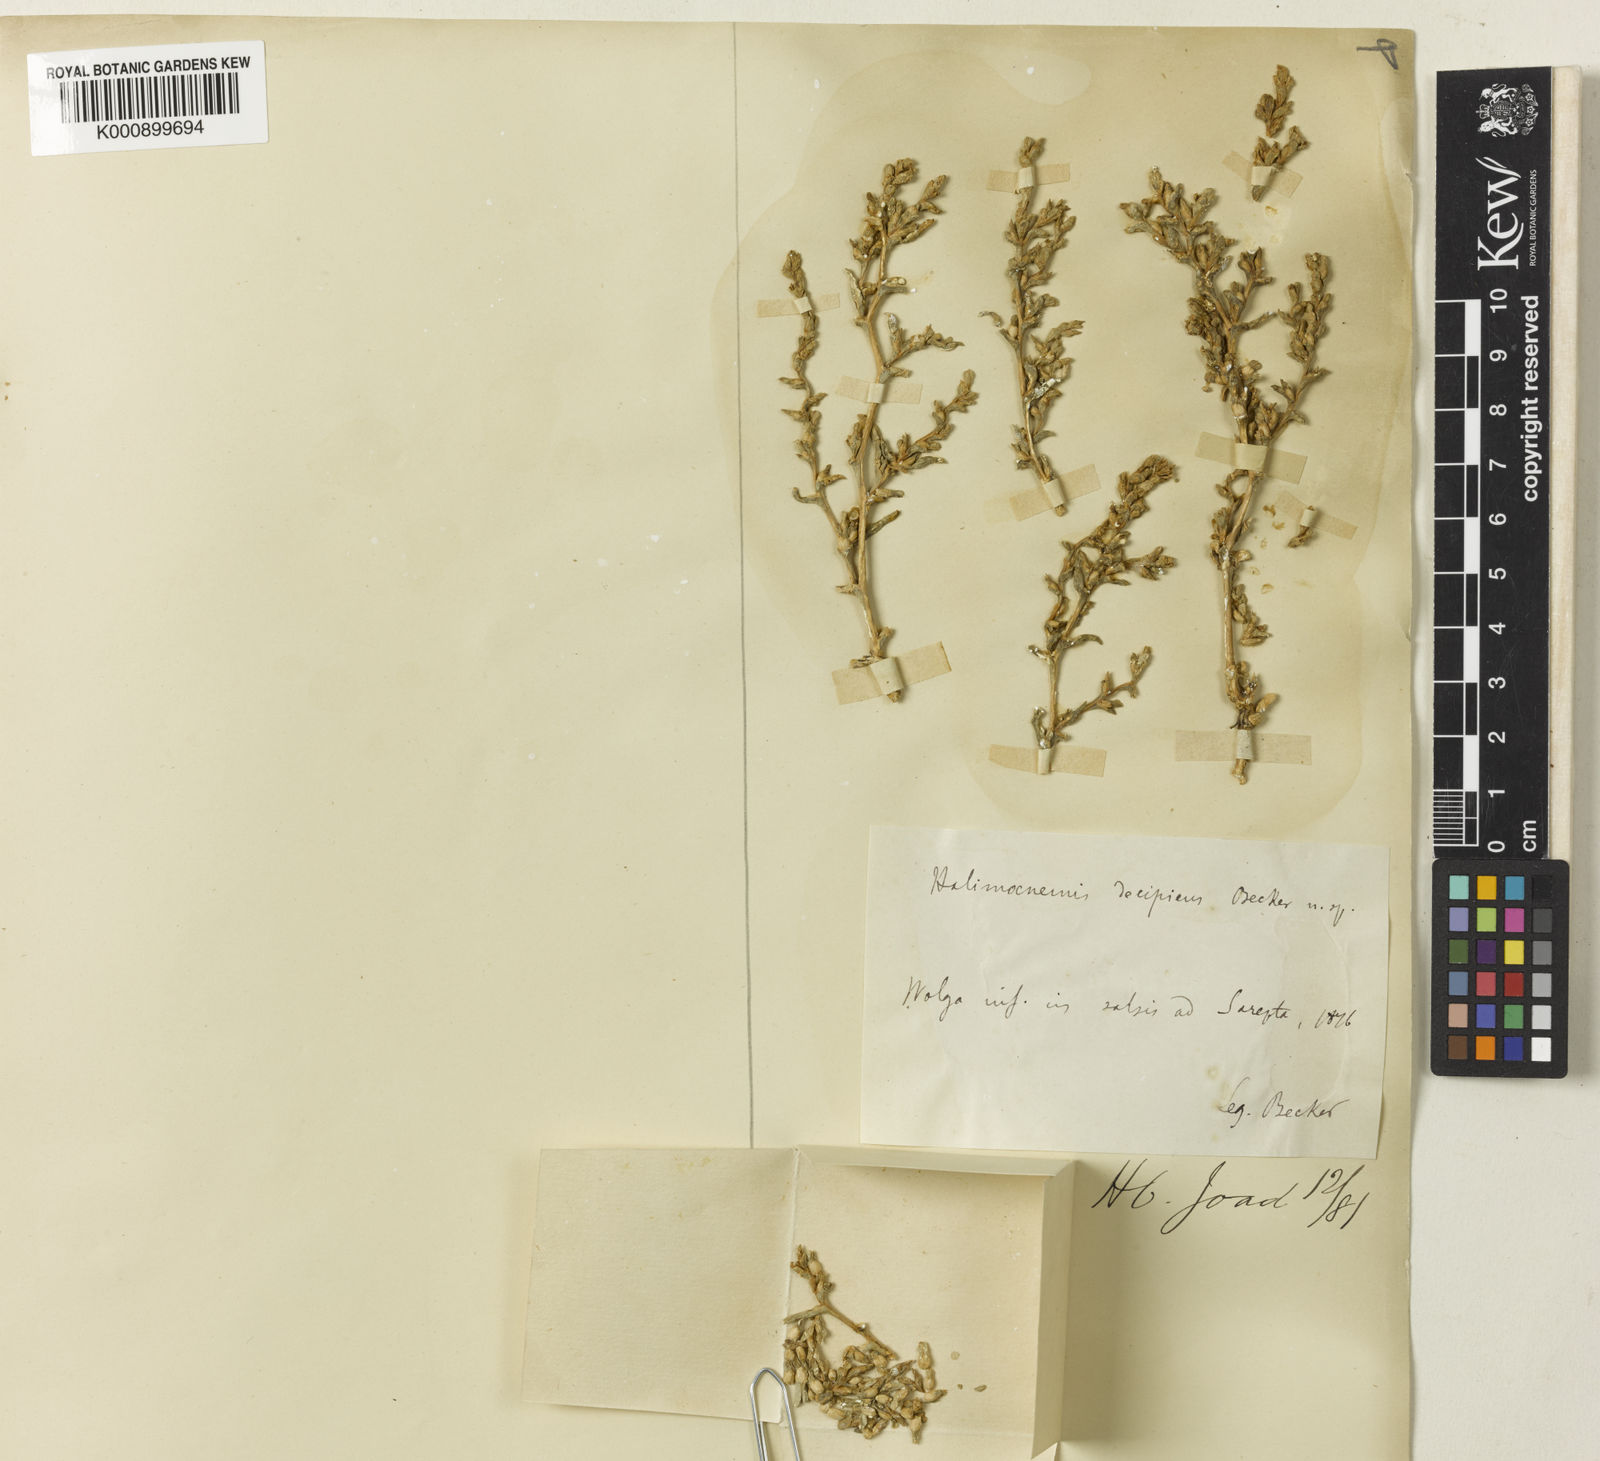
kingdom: Plantae
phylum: Tracheophyta
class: Magnoliopsida
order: Caryophyllales
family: Amaranthaceae
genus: Halimocnemis
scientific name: Halimocnemis
